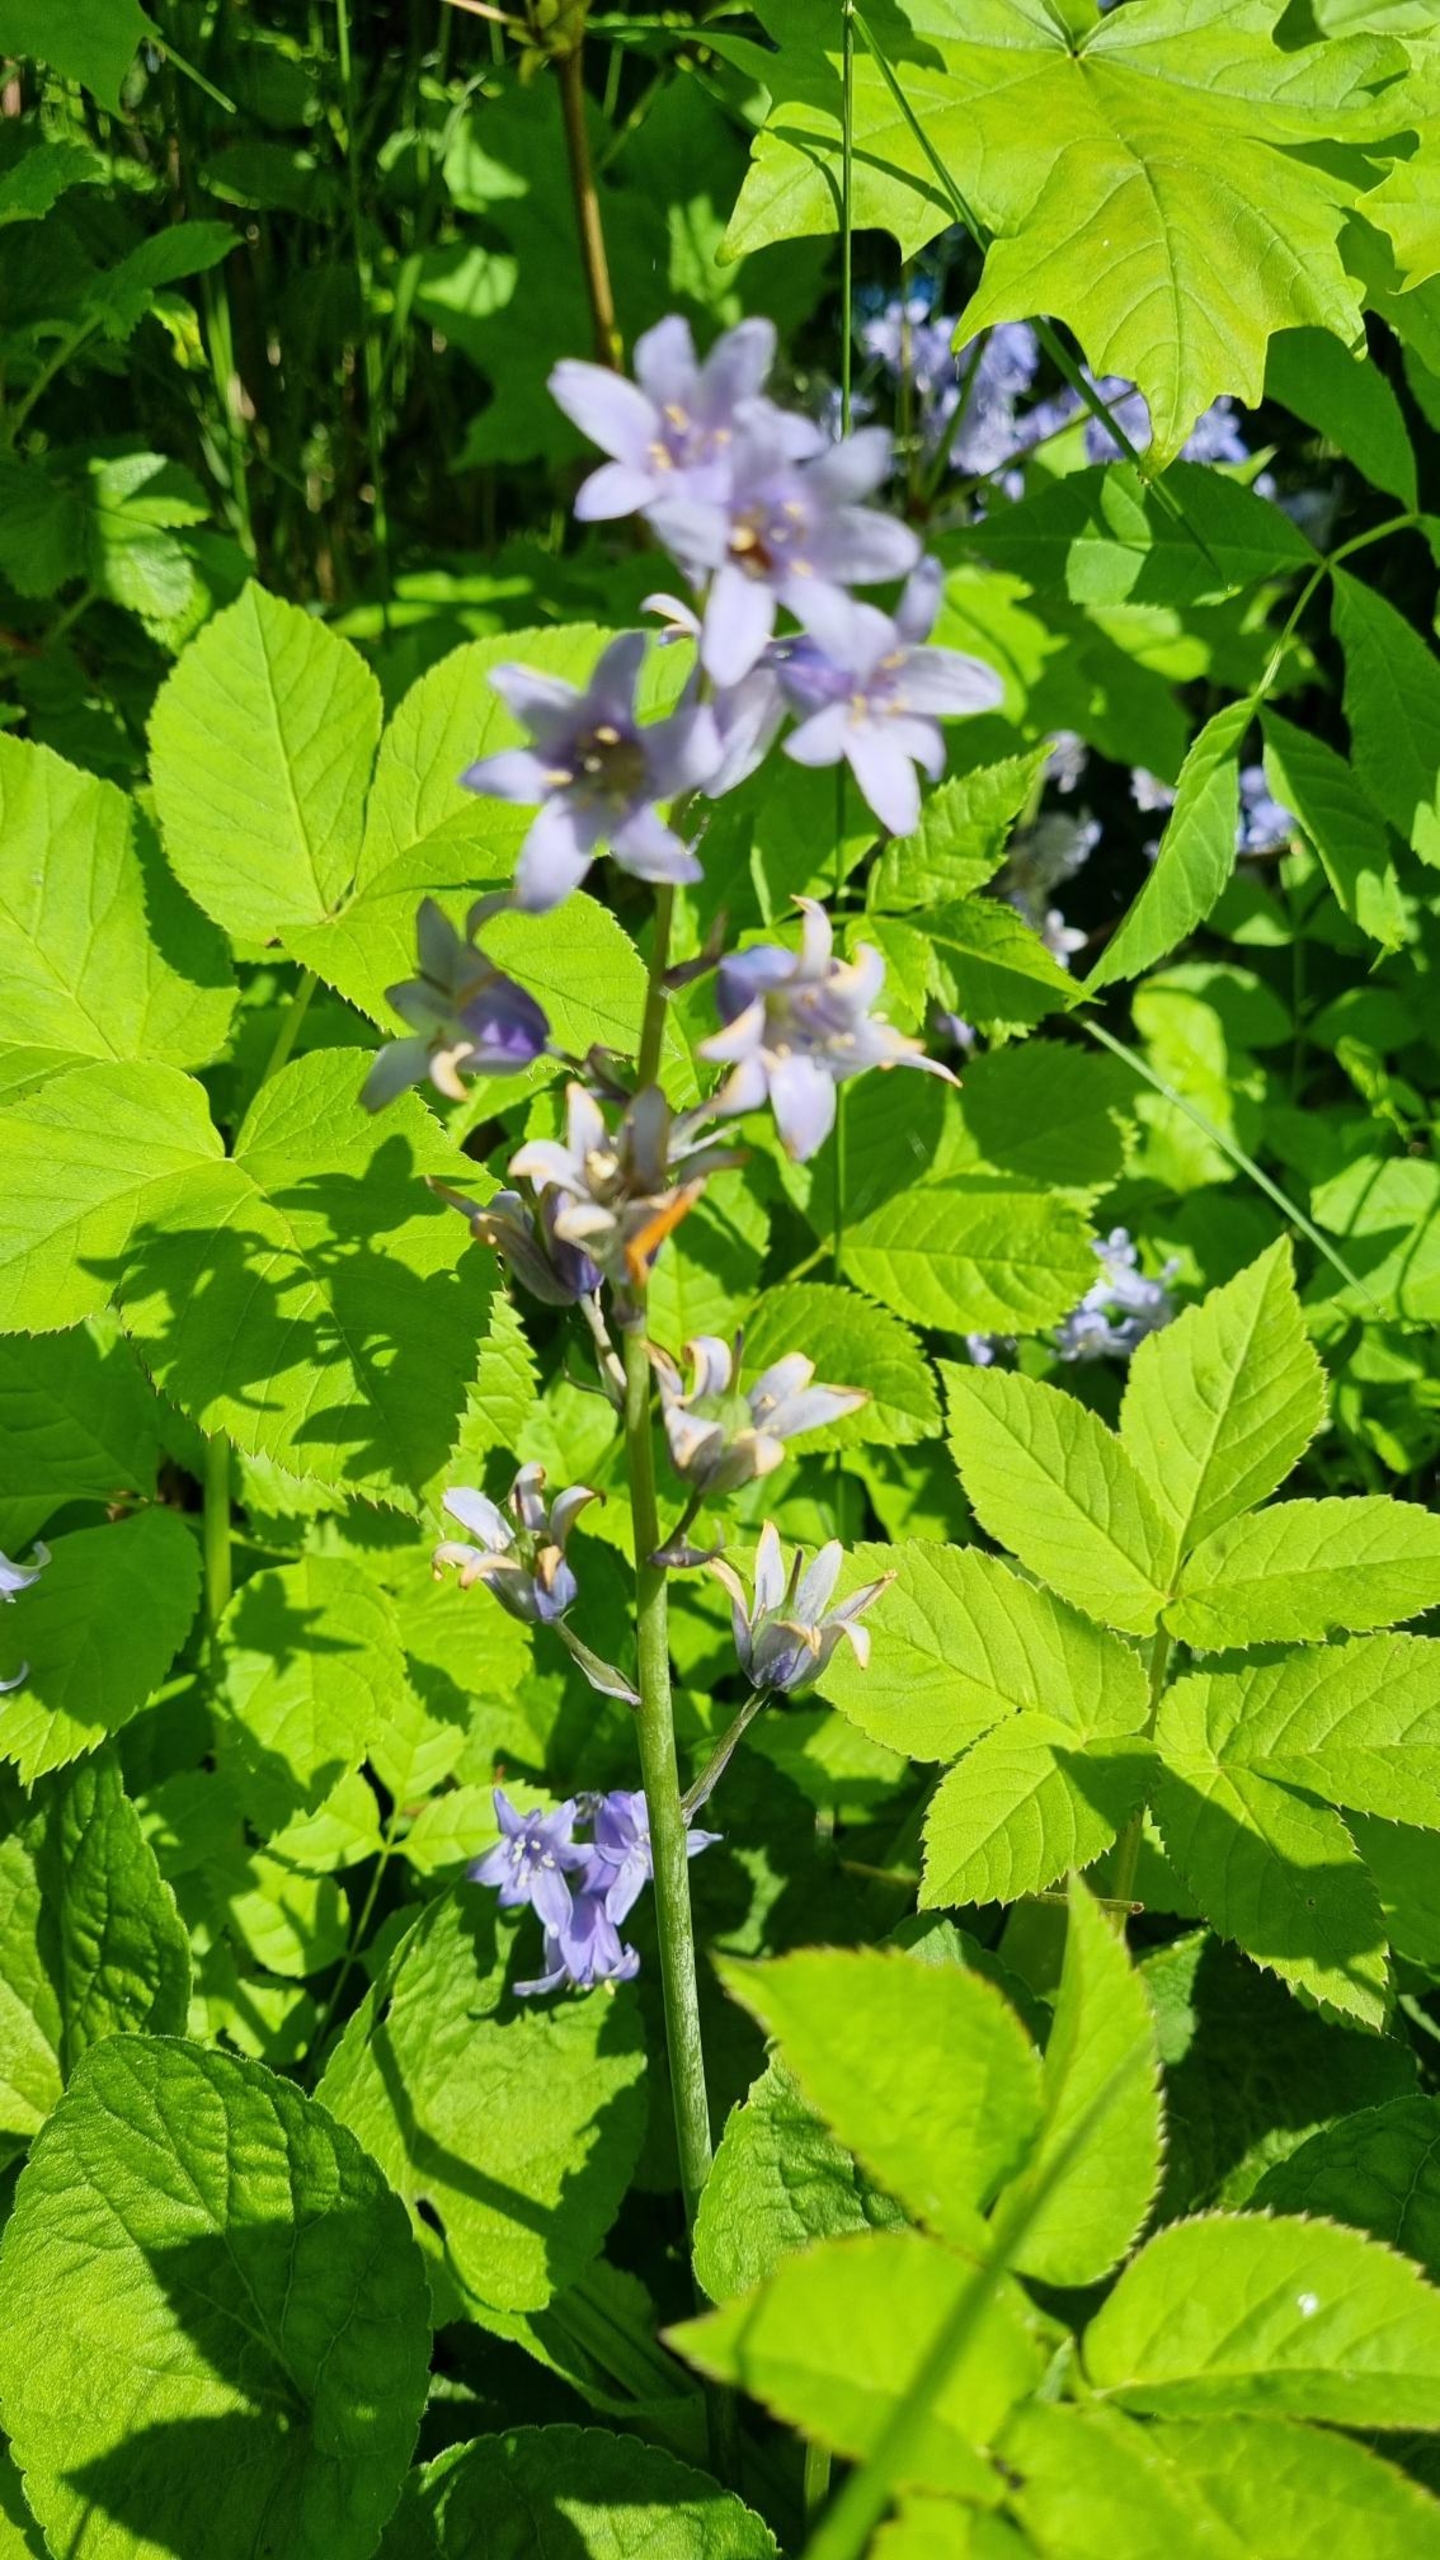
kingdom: Plantae
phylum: Tracheophyta
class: Liliopsida
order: Asparagales
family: Asparagaceae
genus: Hyacinthoides
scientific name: Hyacinthoides massartiana
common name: Hybrid-klokkeskilla
